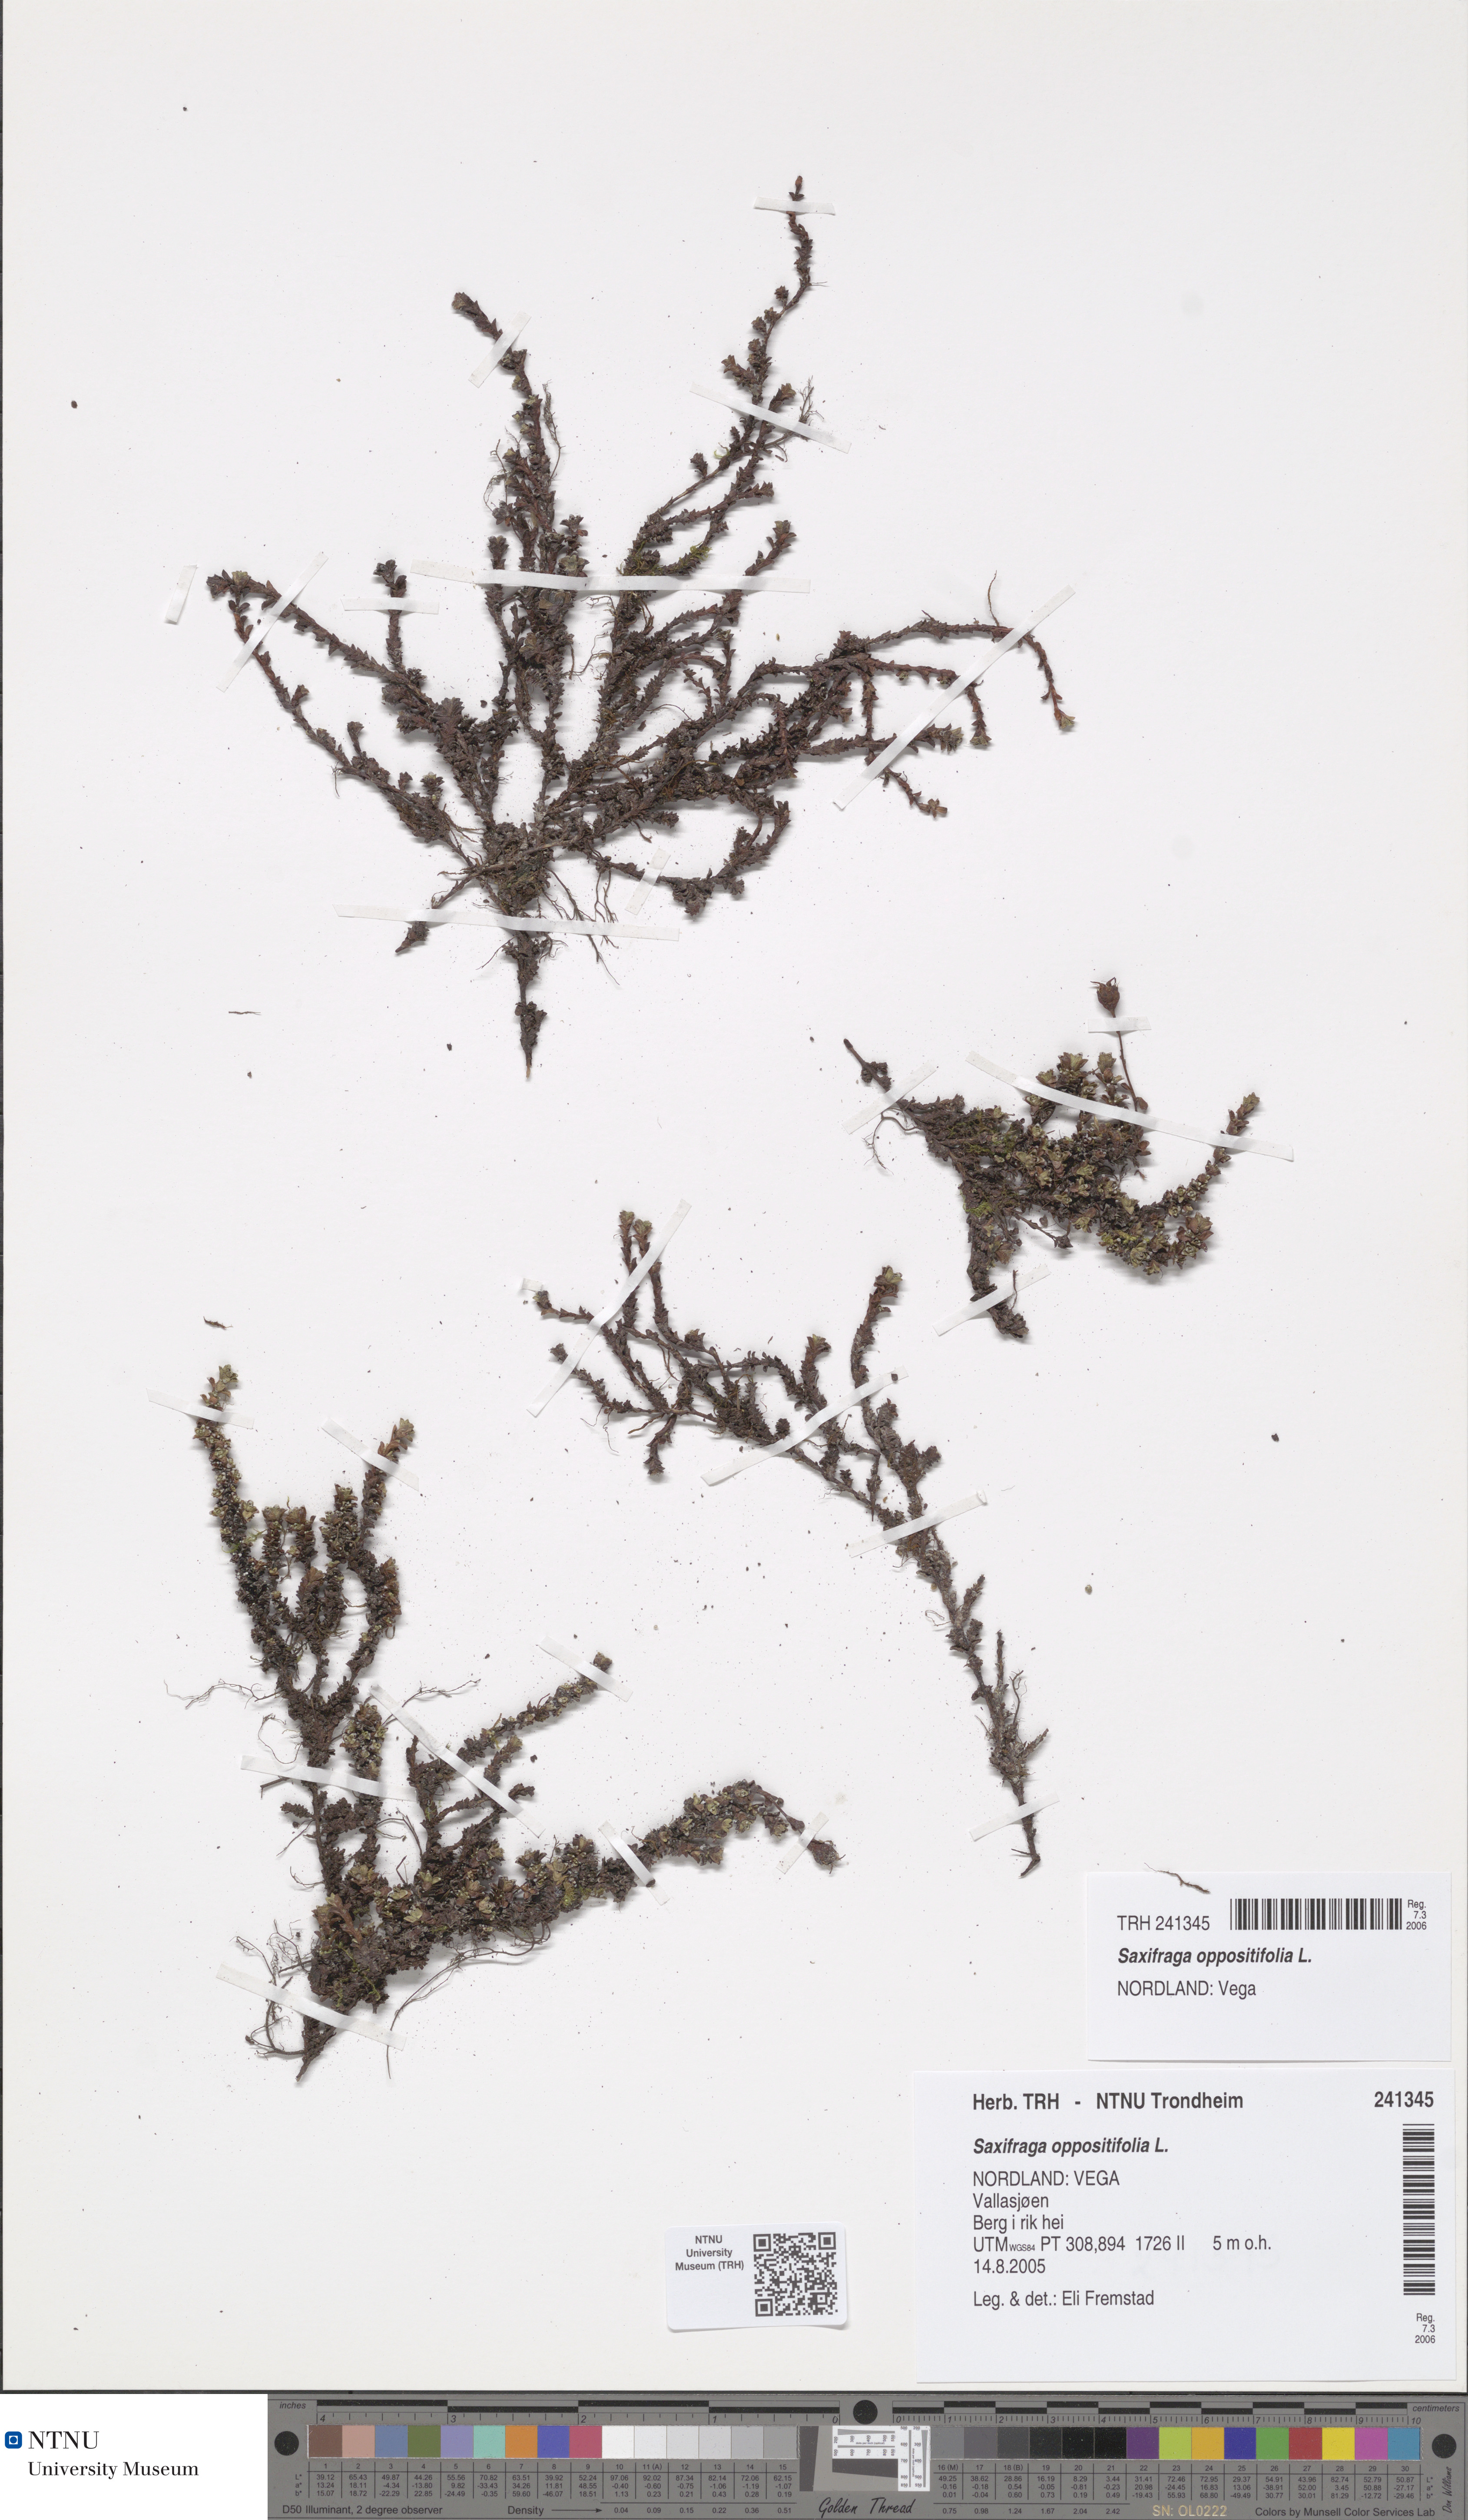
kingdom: Plantae
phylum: Tracheophyta
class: Magnoliopsida
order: Saxifragales
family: Saxifragaceae
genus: Saxifraga
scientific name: Saxifraga oppositifolia
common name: Purple saxifrage
